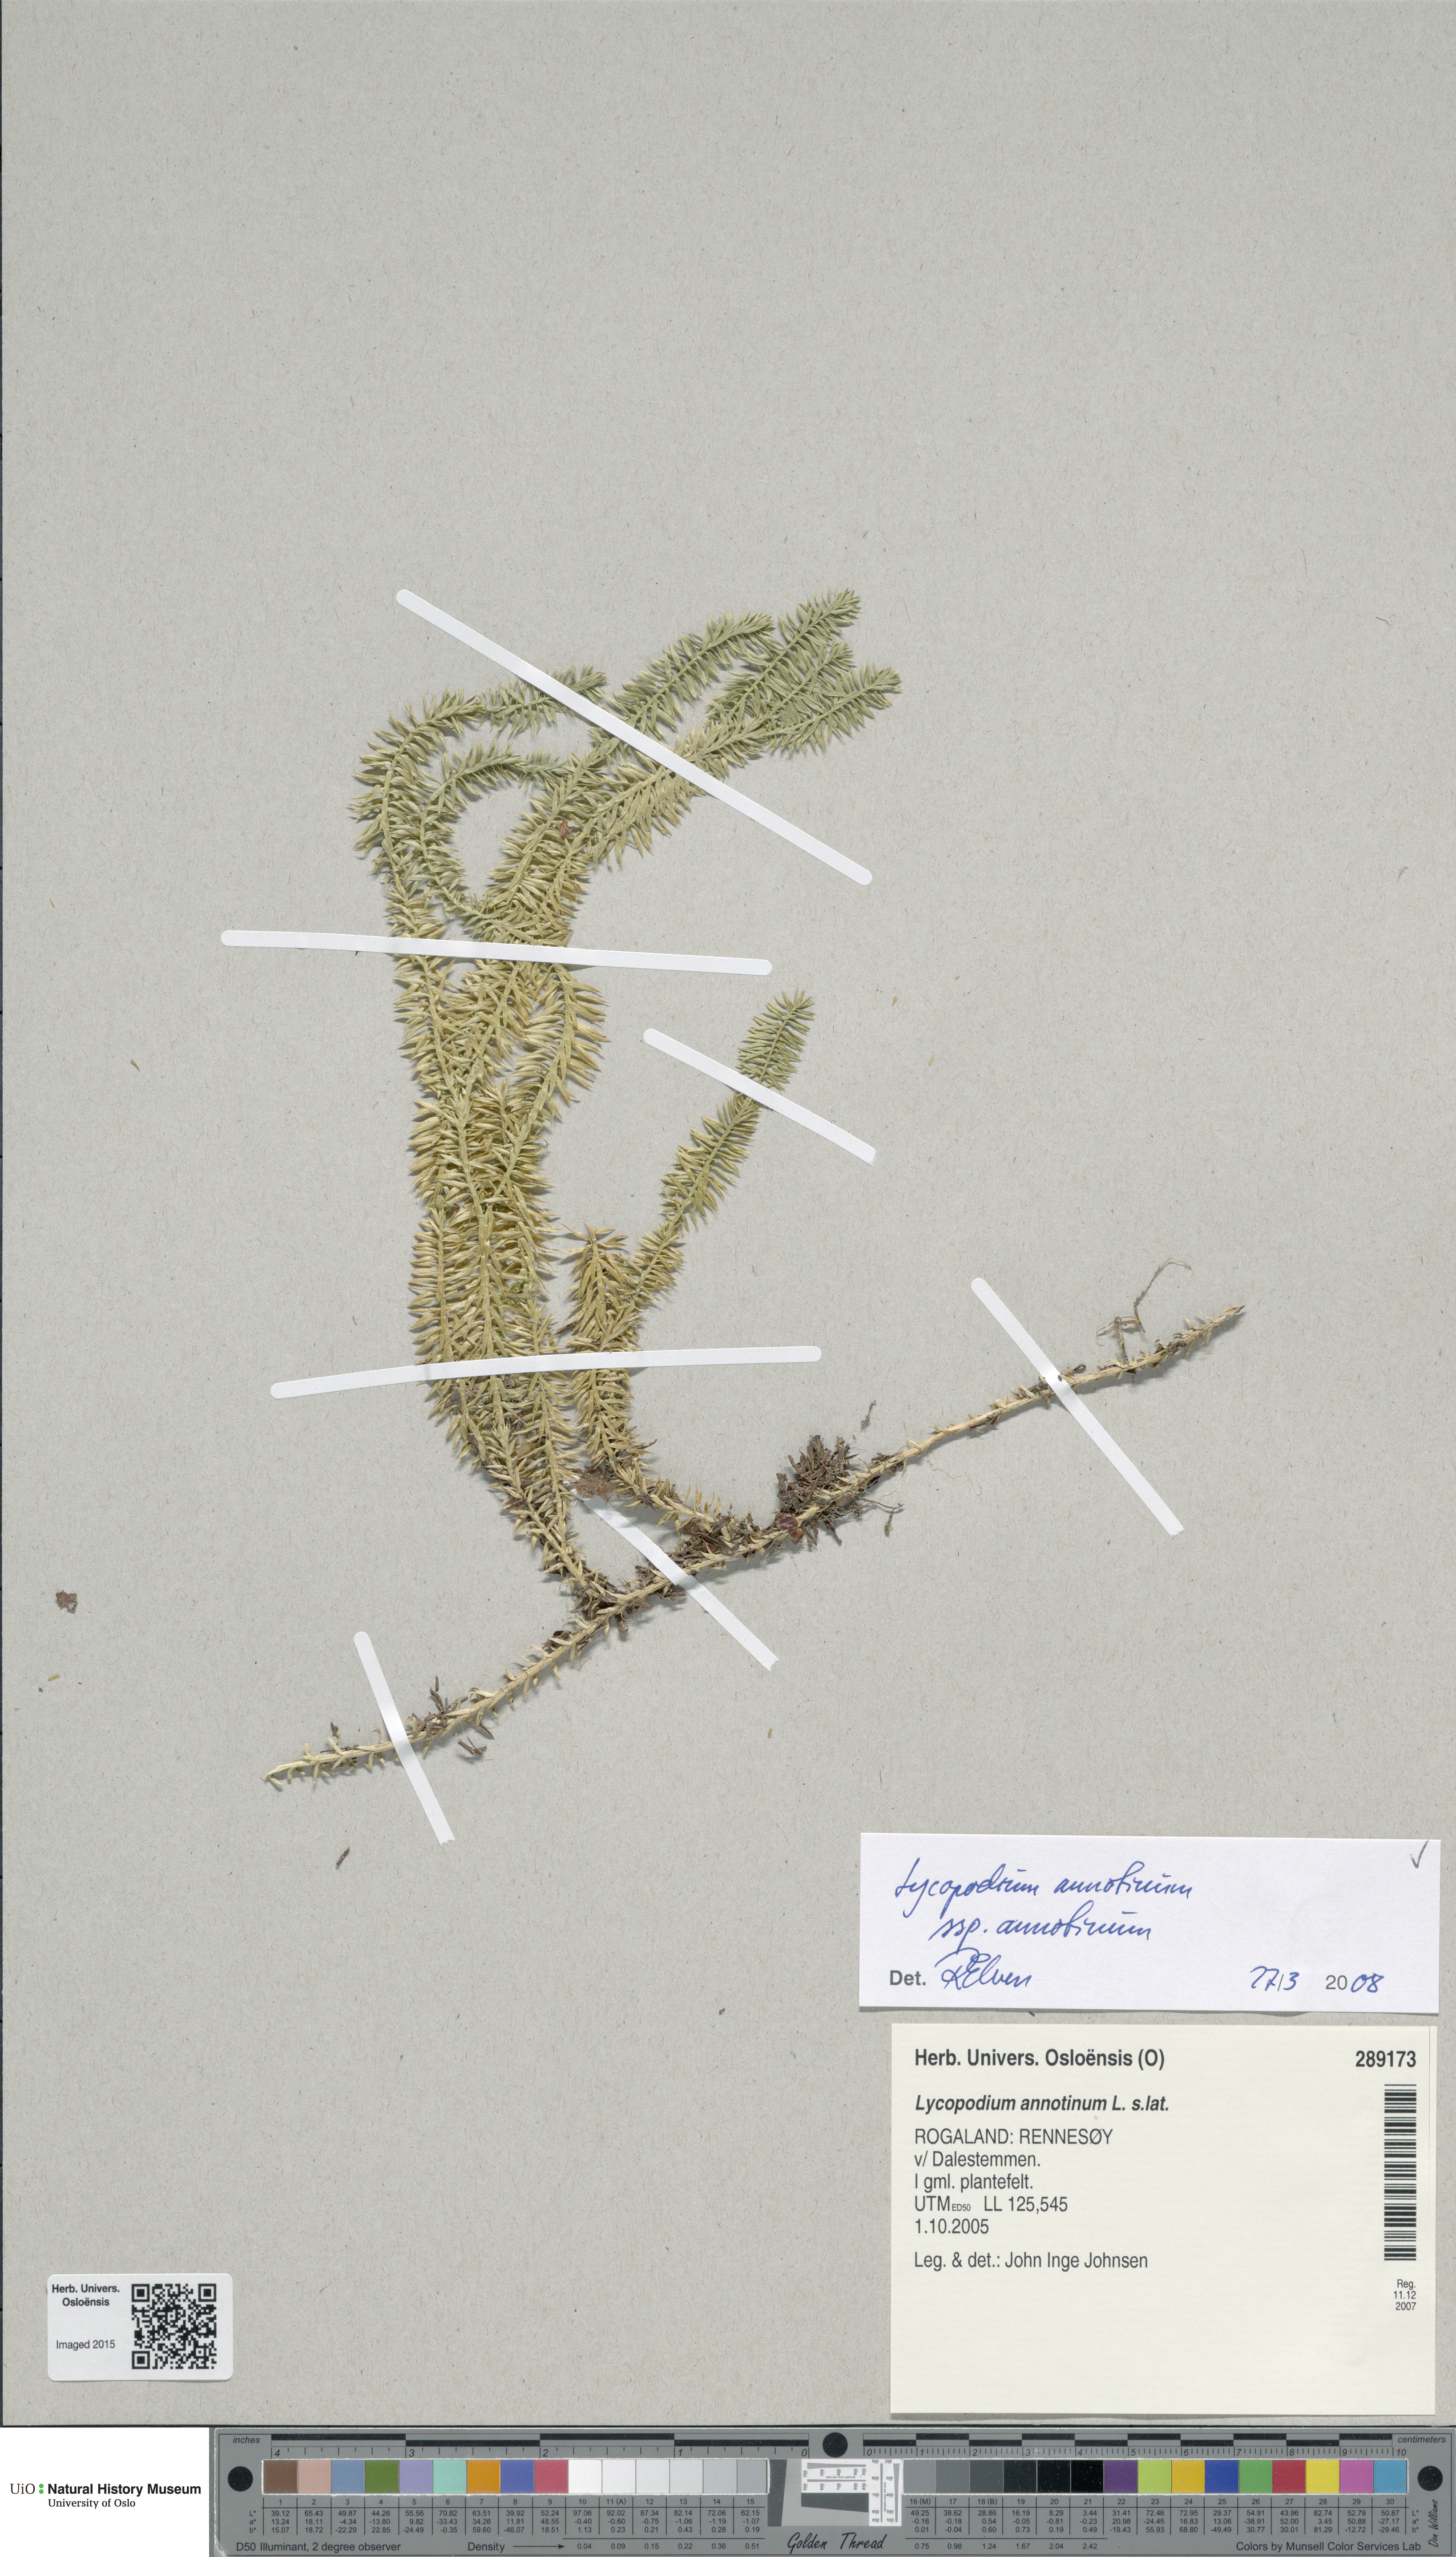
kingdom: Plantae
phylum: Tracheophyta
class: Lycopodiopsida
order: Lycopodiales
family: Lycopodiaceae
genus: Spinulum
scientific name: Spinulum annotinum
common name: Interrupted club-moss
